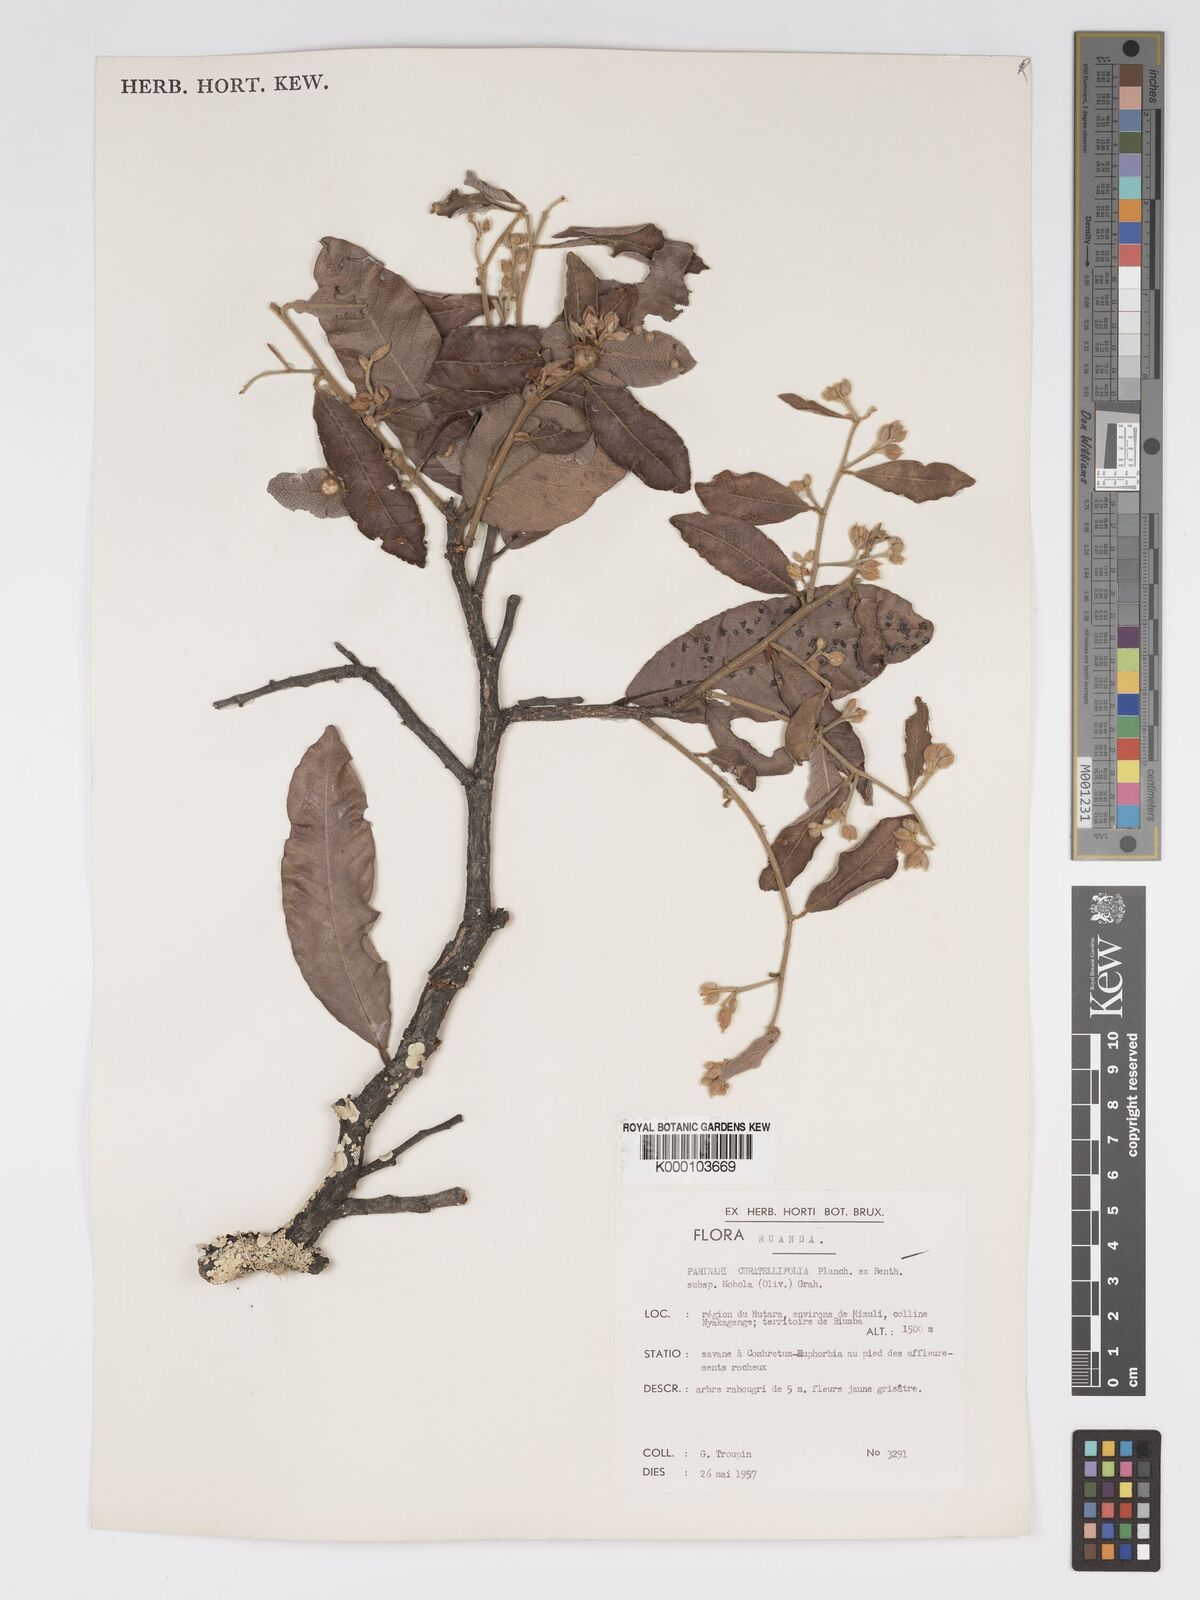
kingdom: Plantae
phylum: Tracheophyta
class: Magnoliopsida
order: Malpighiales
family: Chrysobalanaceae
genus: Parinari
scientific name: Parinari curatellifolia
